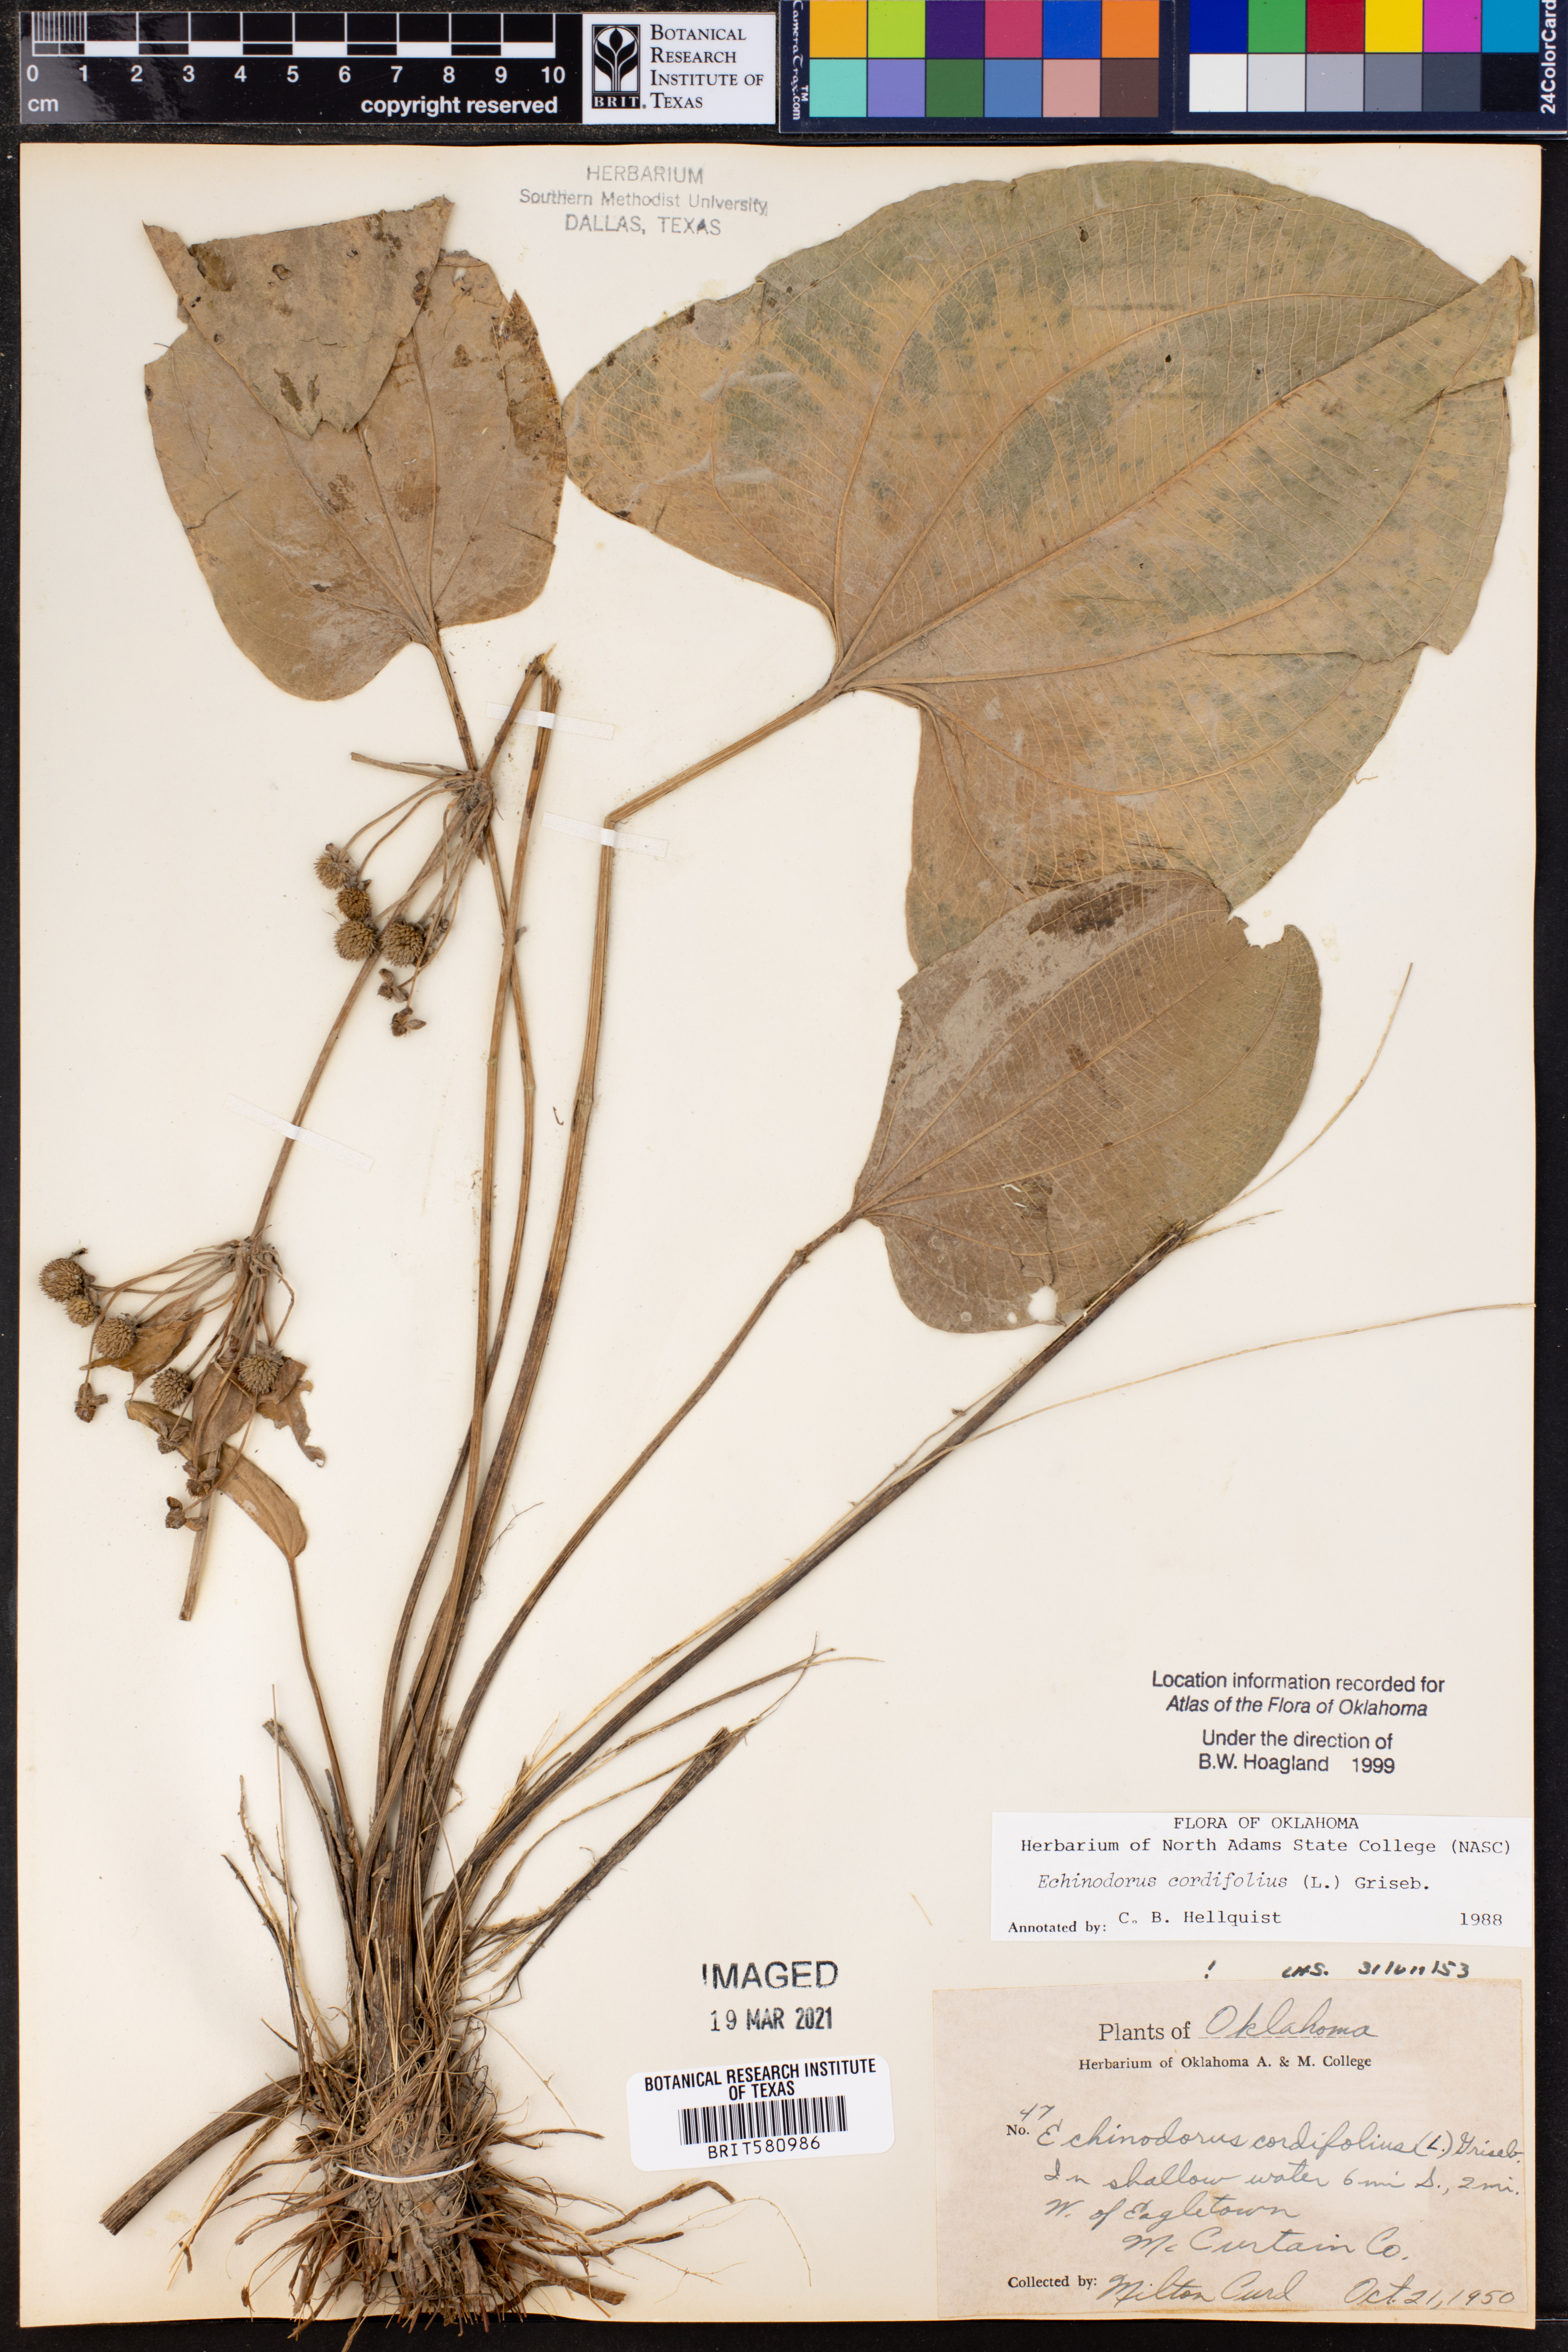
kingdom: Plantae
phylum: Tracheophyta
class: Liliopsida
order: Alismatales
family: Alismataceae
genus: Aquarius
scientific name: Aquarius cordifolius
